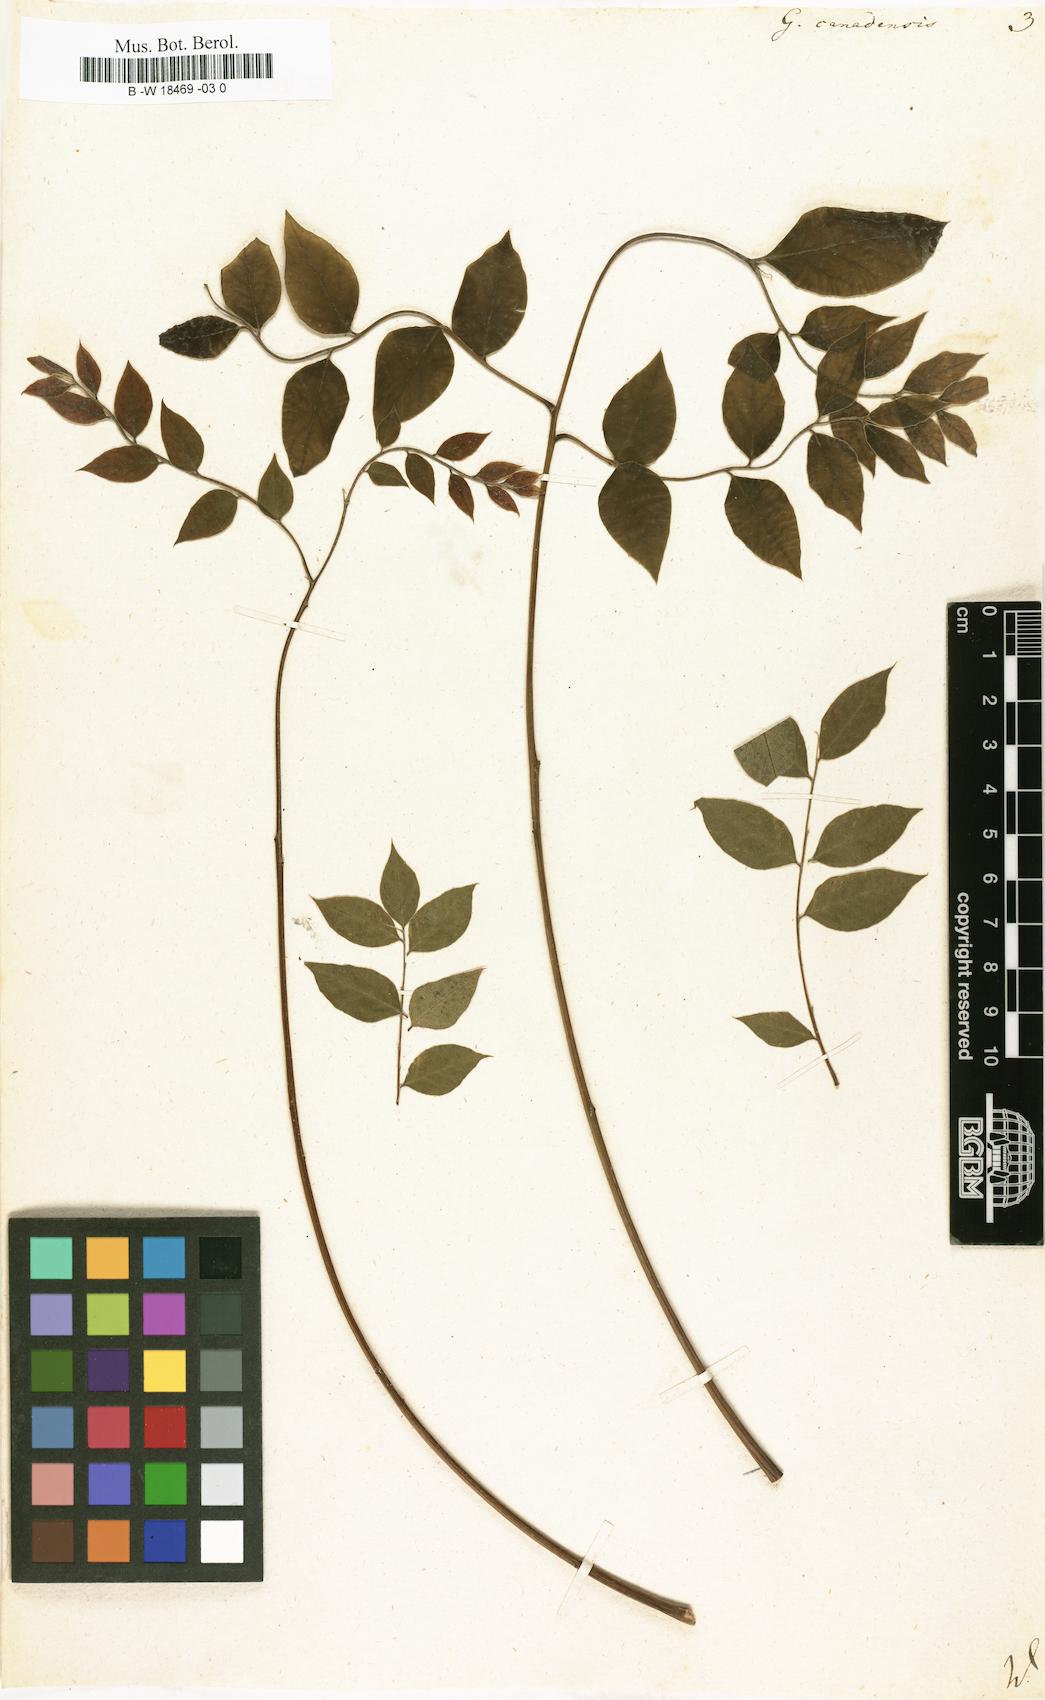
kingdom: Plantae
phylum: Tracheophyta
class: Magnoliopsida
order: Fabales
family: Fabaceae
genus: Gymnocladus
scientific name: Gymnocladus dioicus
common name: Kentucky coffee-tree
